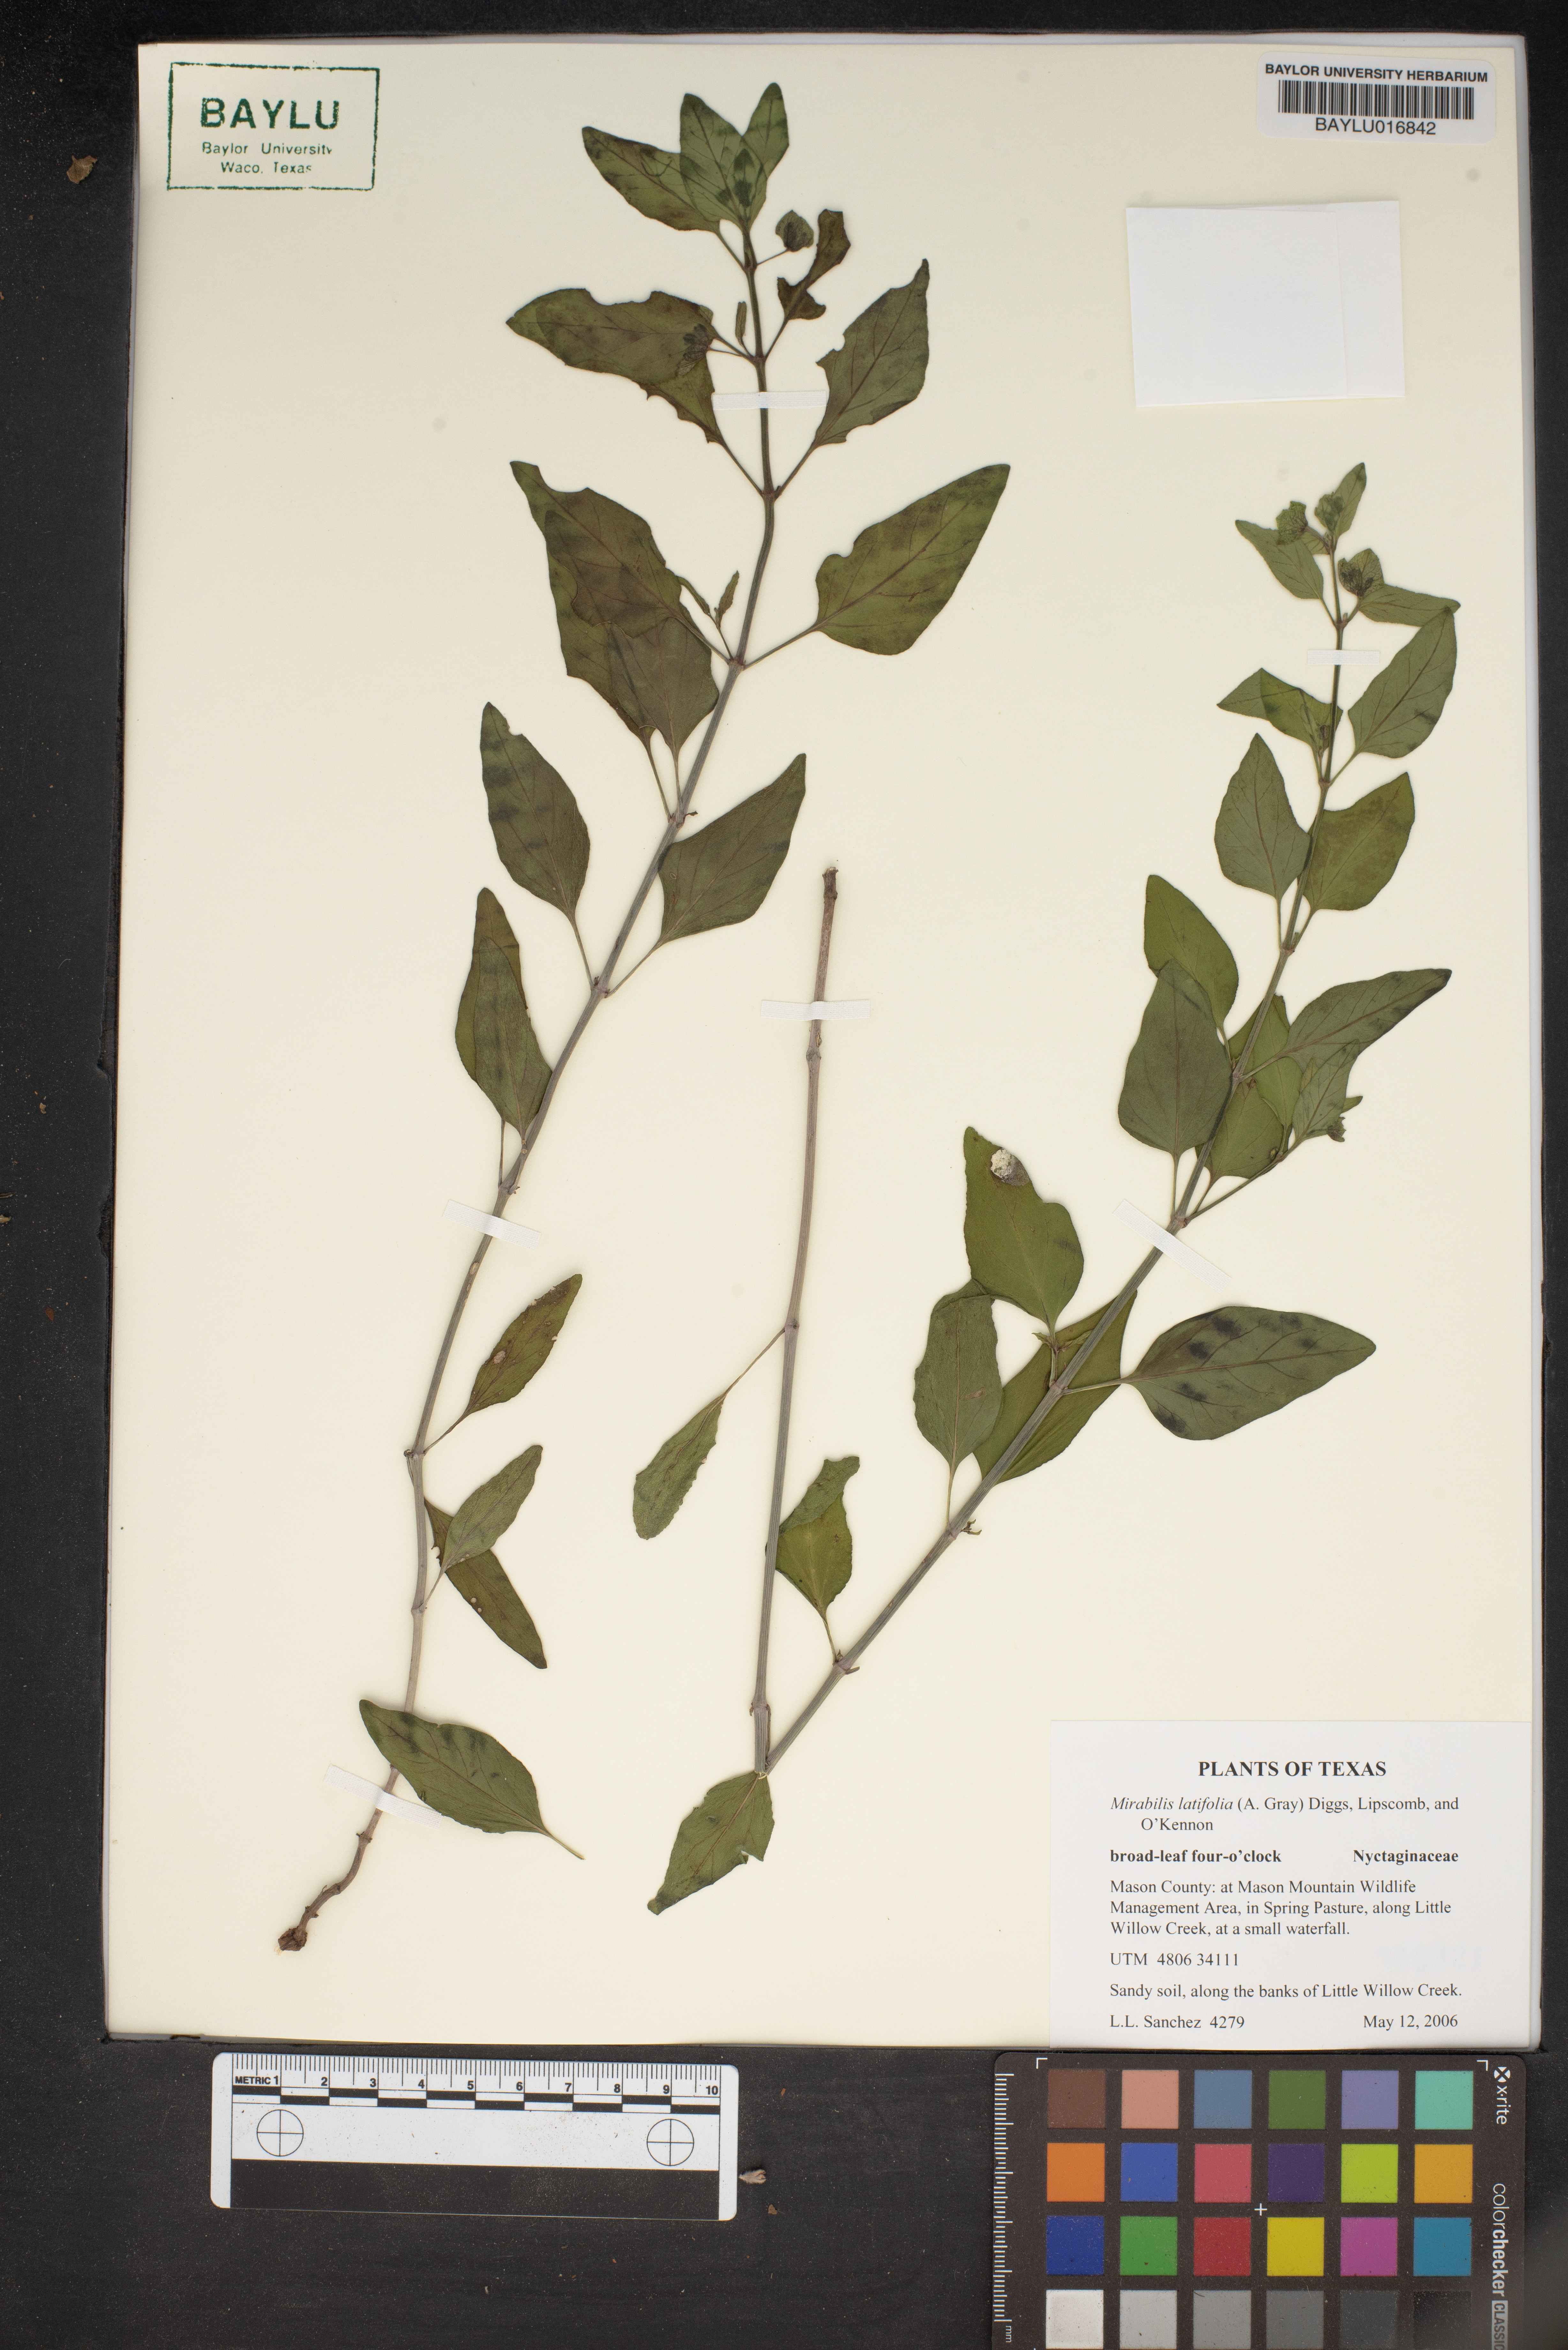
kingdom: Plantae
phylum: Tracheophyta
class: Magnoliopsida
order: Caryophyllales
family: Nyctaginaceae
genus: Mirabilis
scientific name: Mirabilis latifolia
